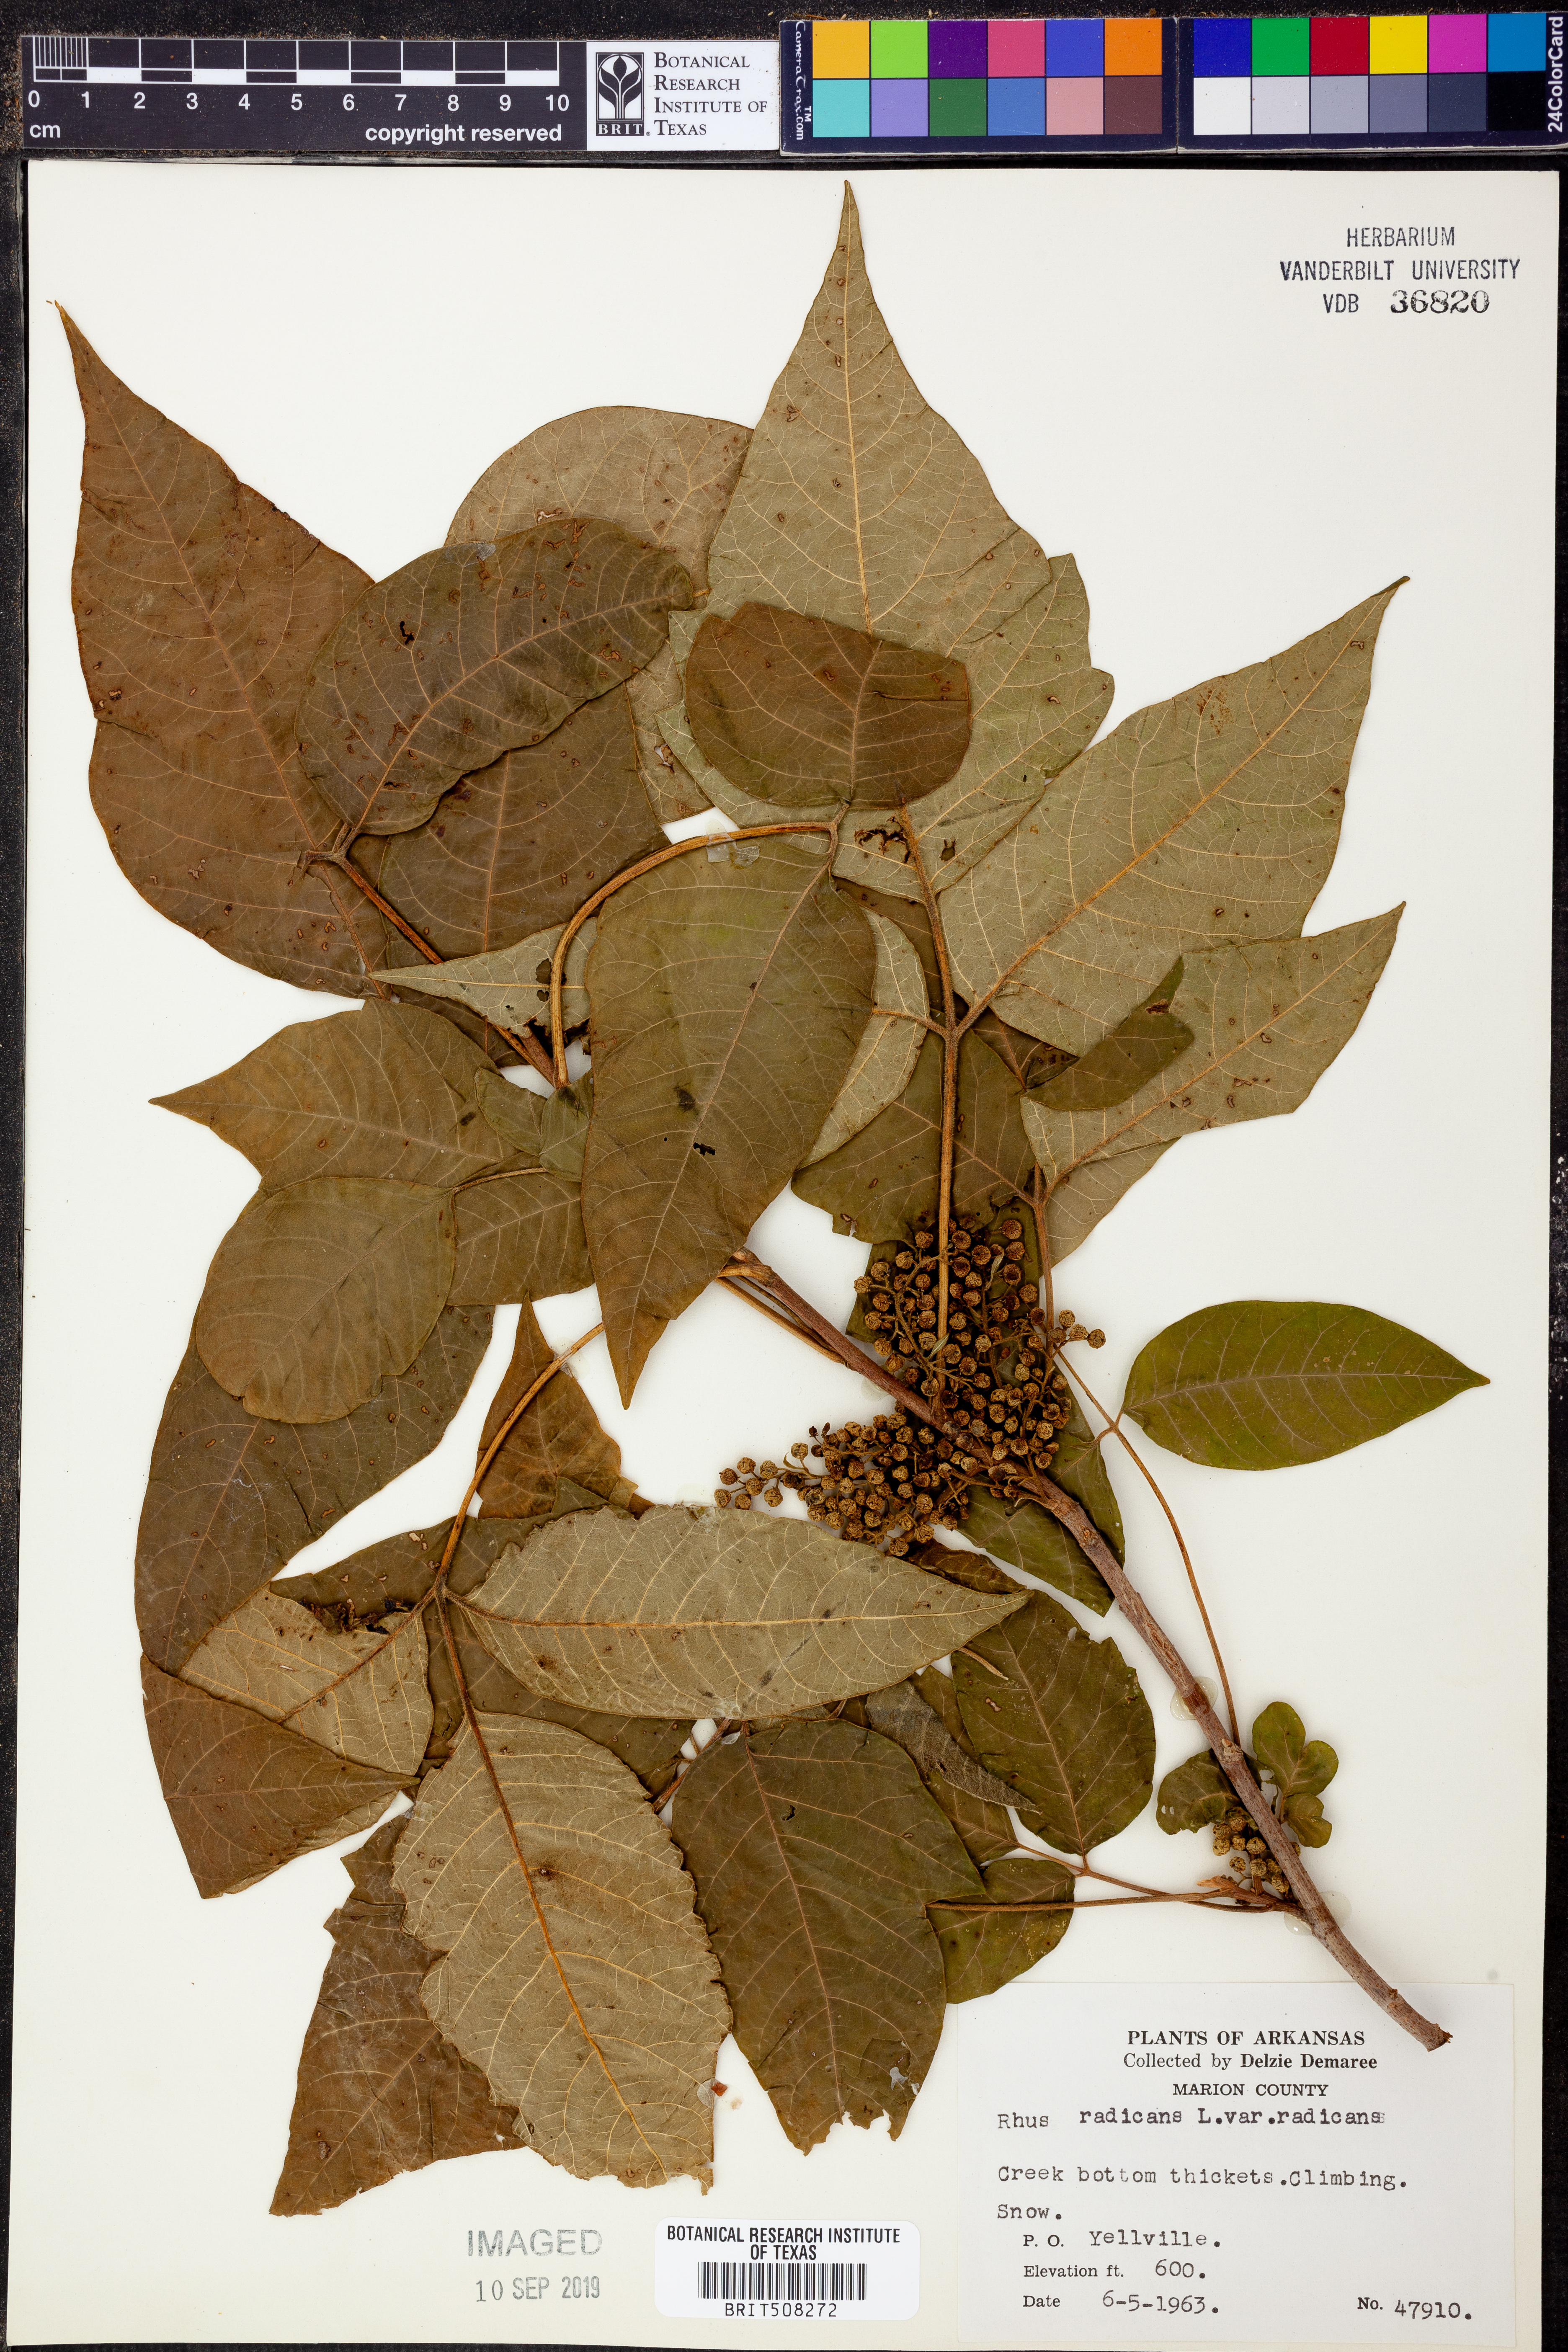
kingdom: Plantae
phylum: Tracheophyta
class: Magnoliopsida
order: Sapindales
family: Anacardiaceae
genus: Toxicodendron
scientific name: Toxicodendron radicans
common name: Poison ivy
